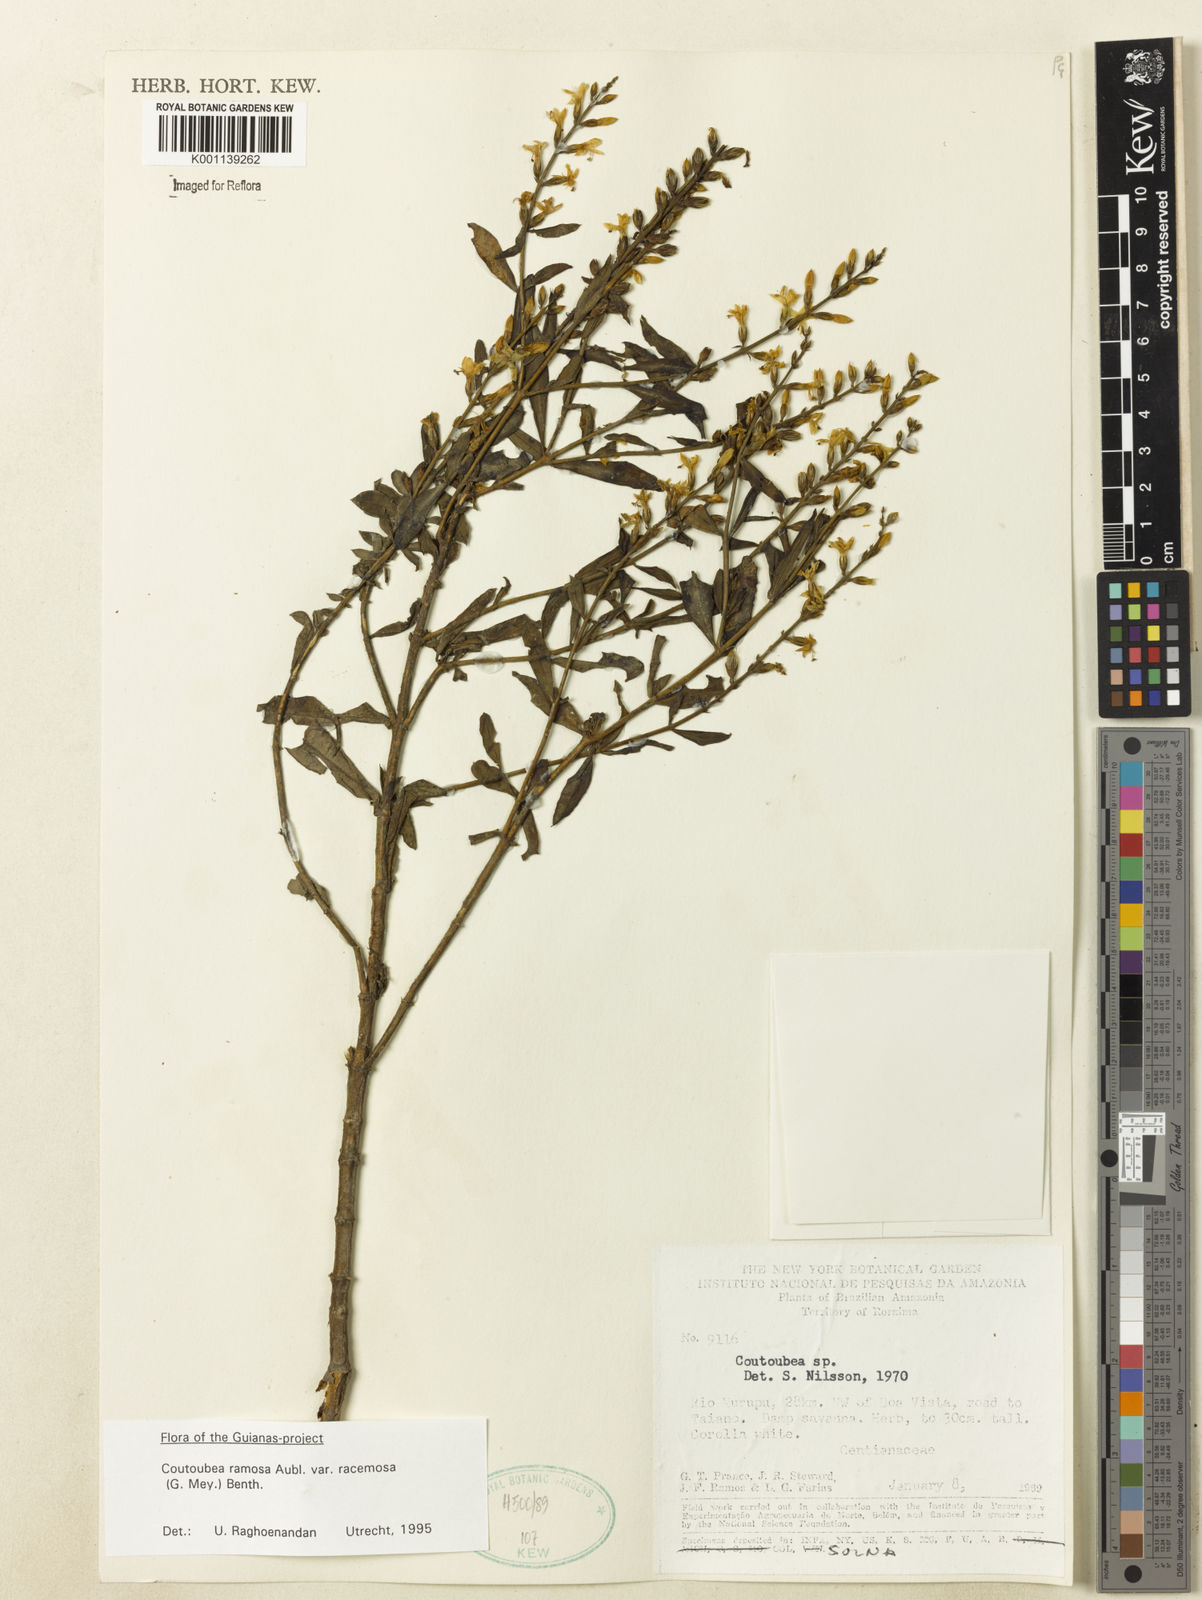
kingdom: Plantae
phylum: Tracheophyta
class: Magnoliopsida
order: Gentianales
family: Gentianaceae
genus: Coutoubea
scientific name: Coutoubea ramosa
